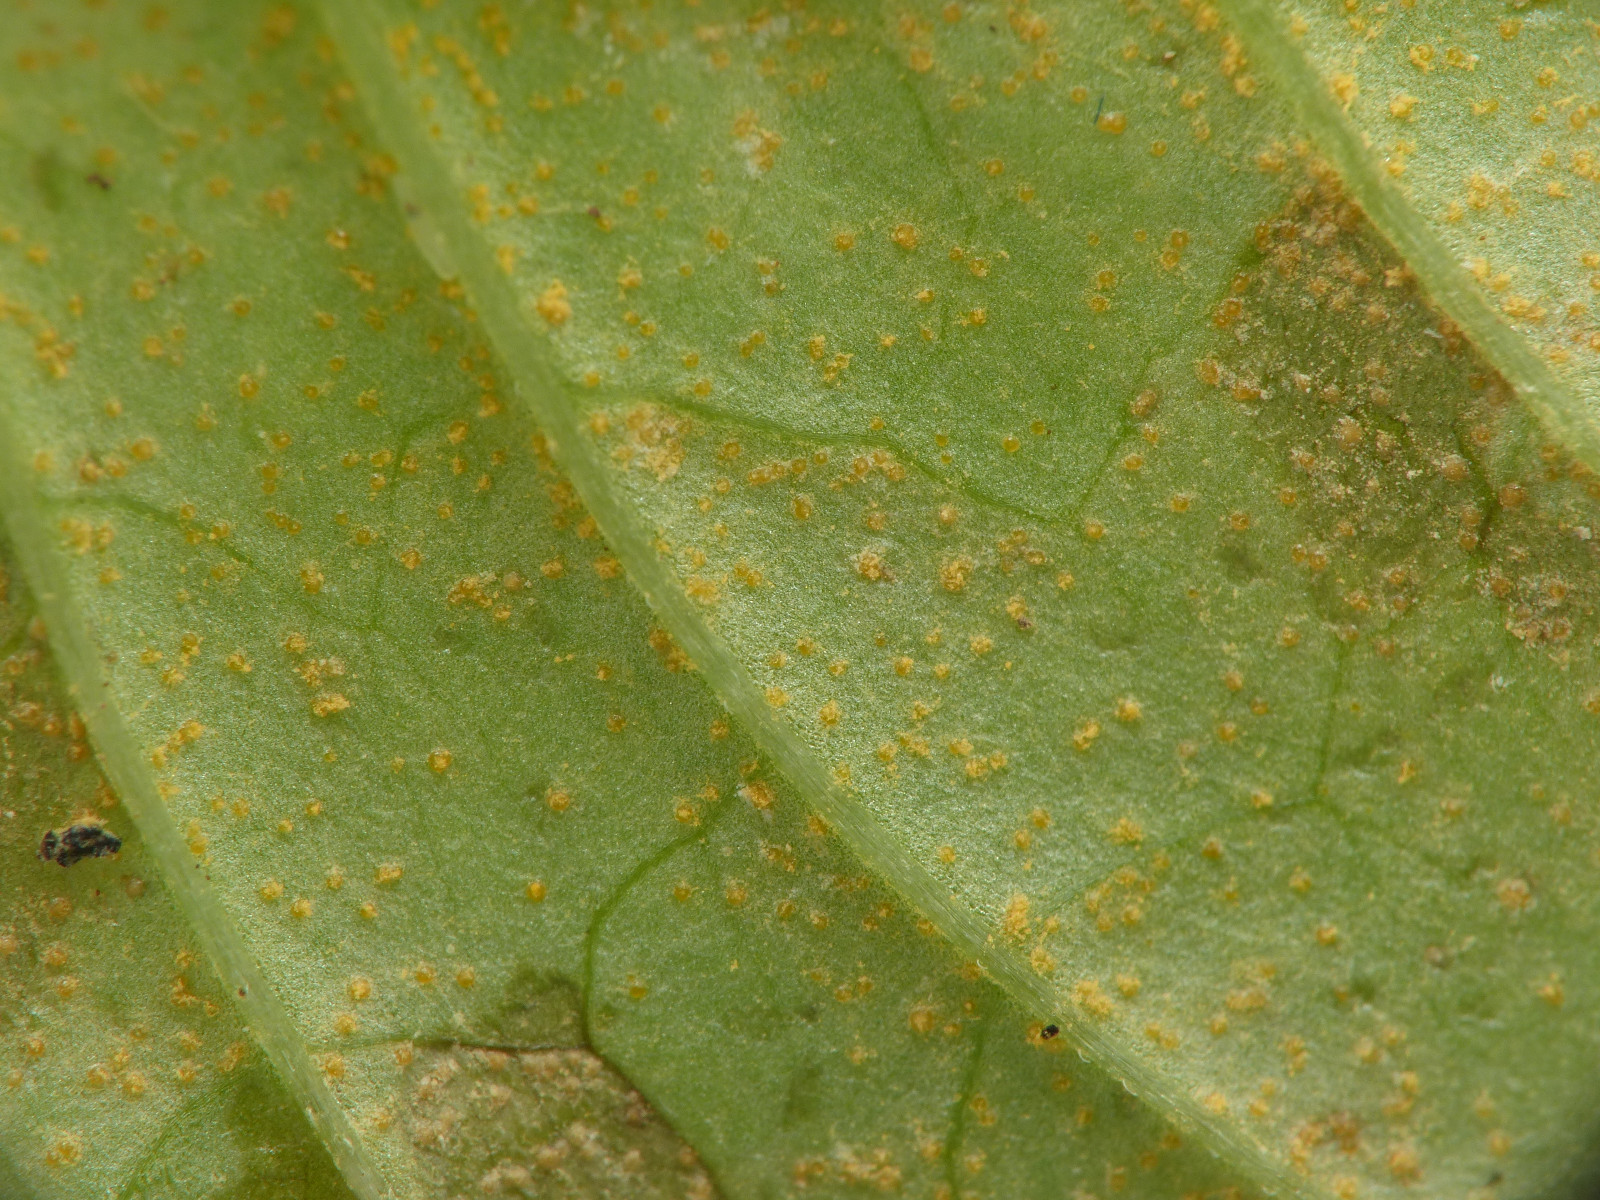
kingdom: Fungi
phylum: Basidiomycota
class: Pucciniomycetes
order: Pucciniales
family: Pucciniastraceae
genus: Pucciniastrum
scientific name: Pucciniastrum circaeae
